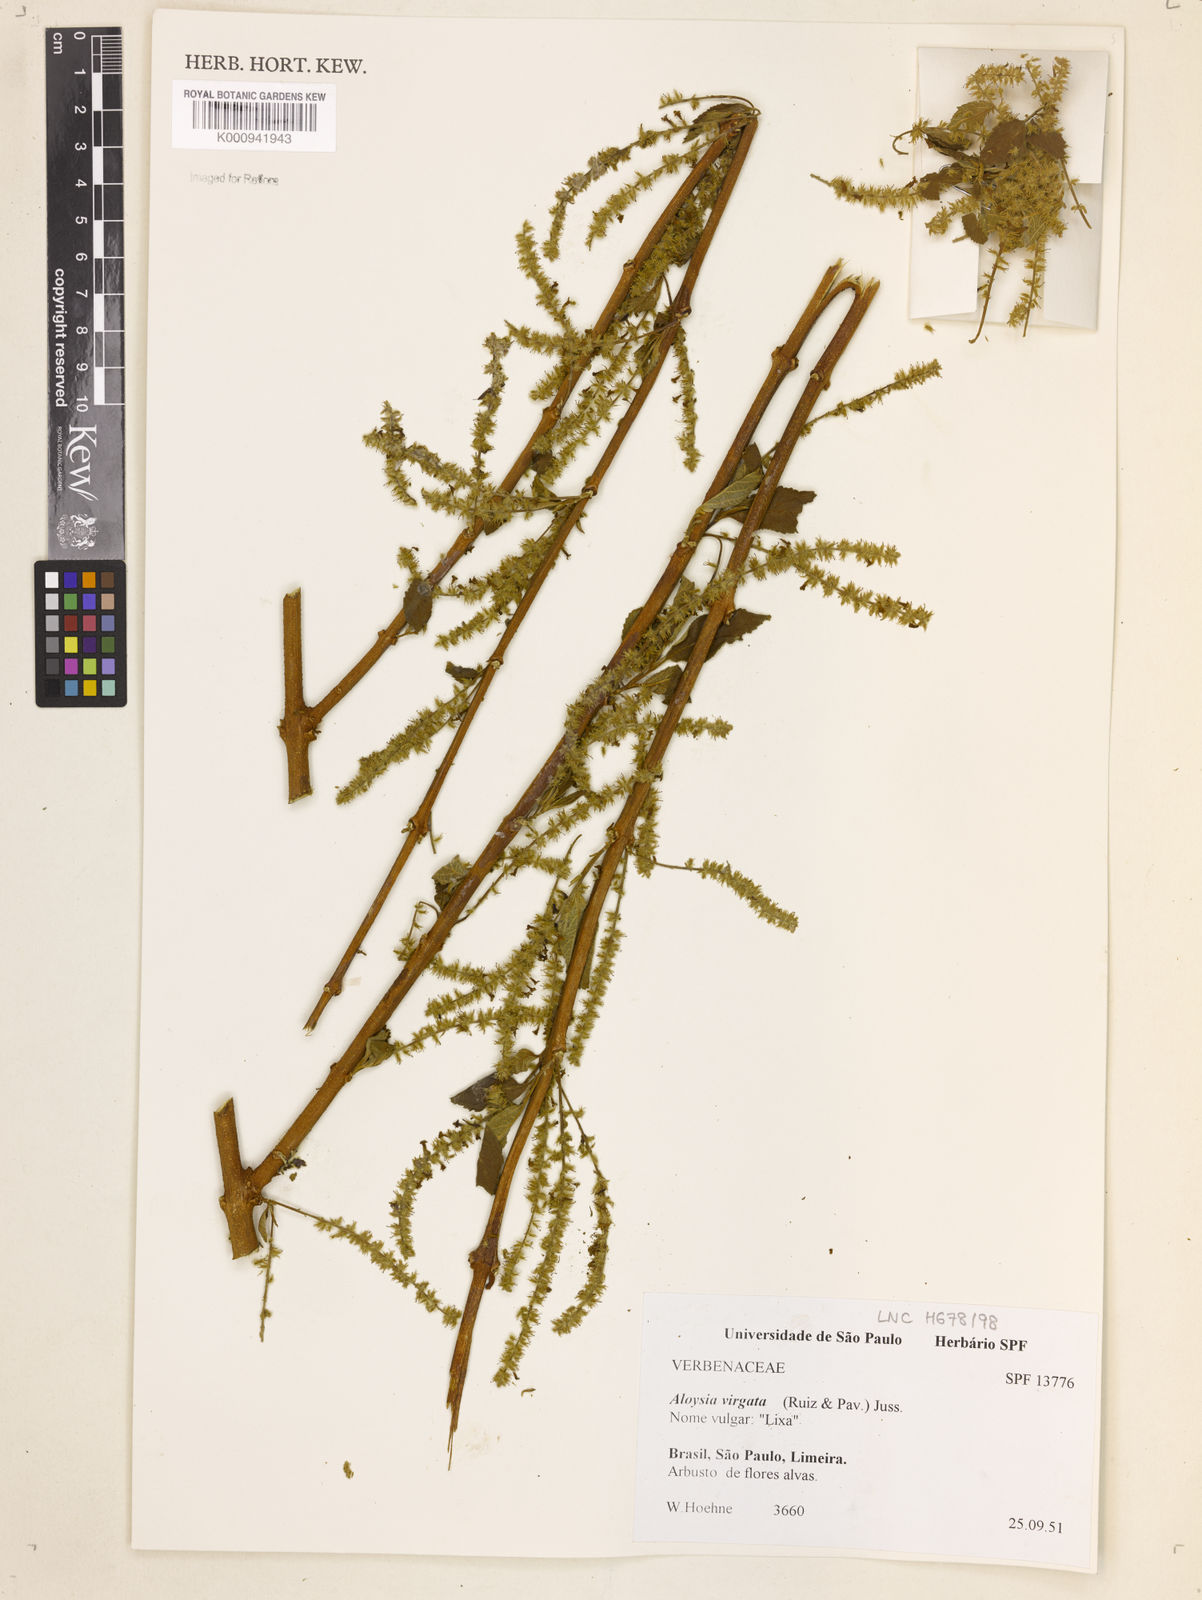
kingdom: Plantae
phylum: Tracheophyta
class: Magnoliopsida
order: Lamiales
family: Verbenaceae
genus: Aloysia
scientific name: Aloysia
